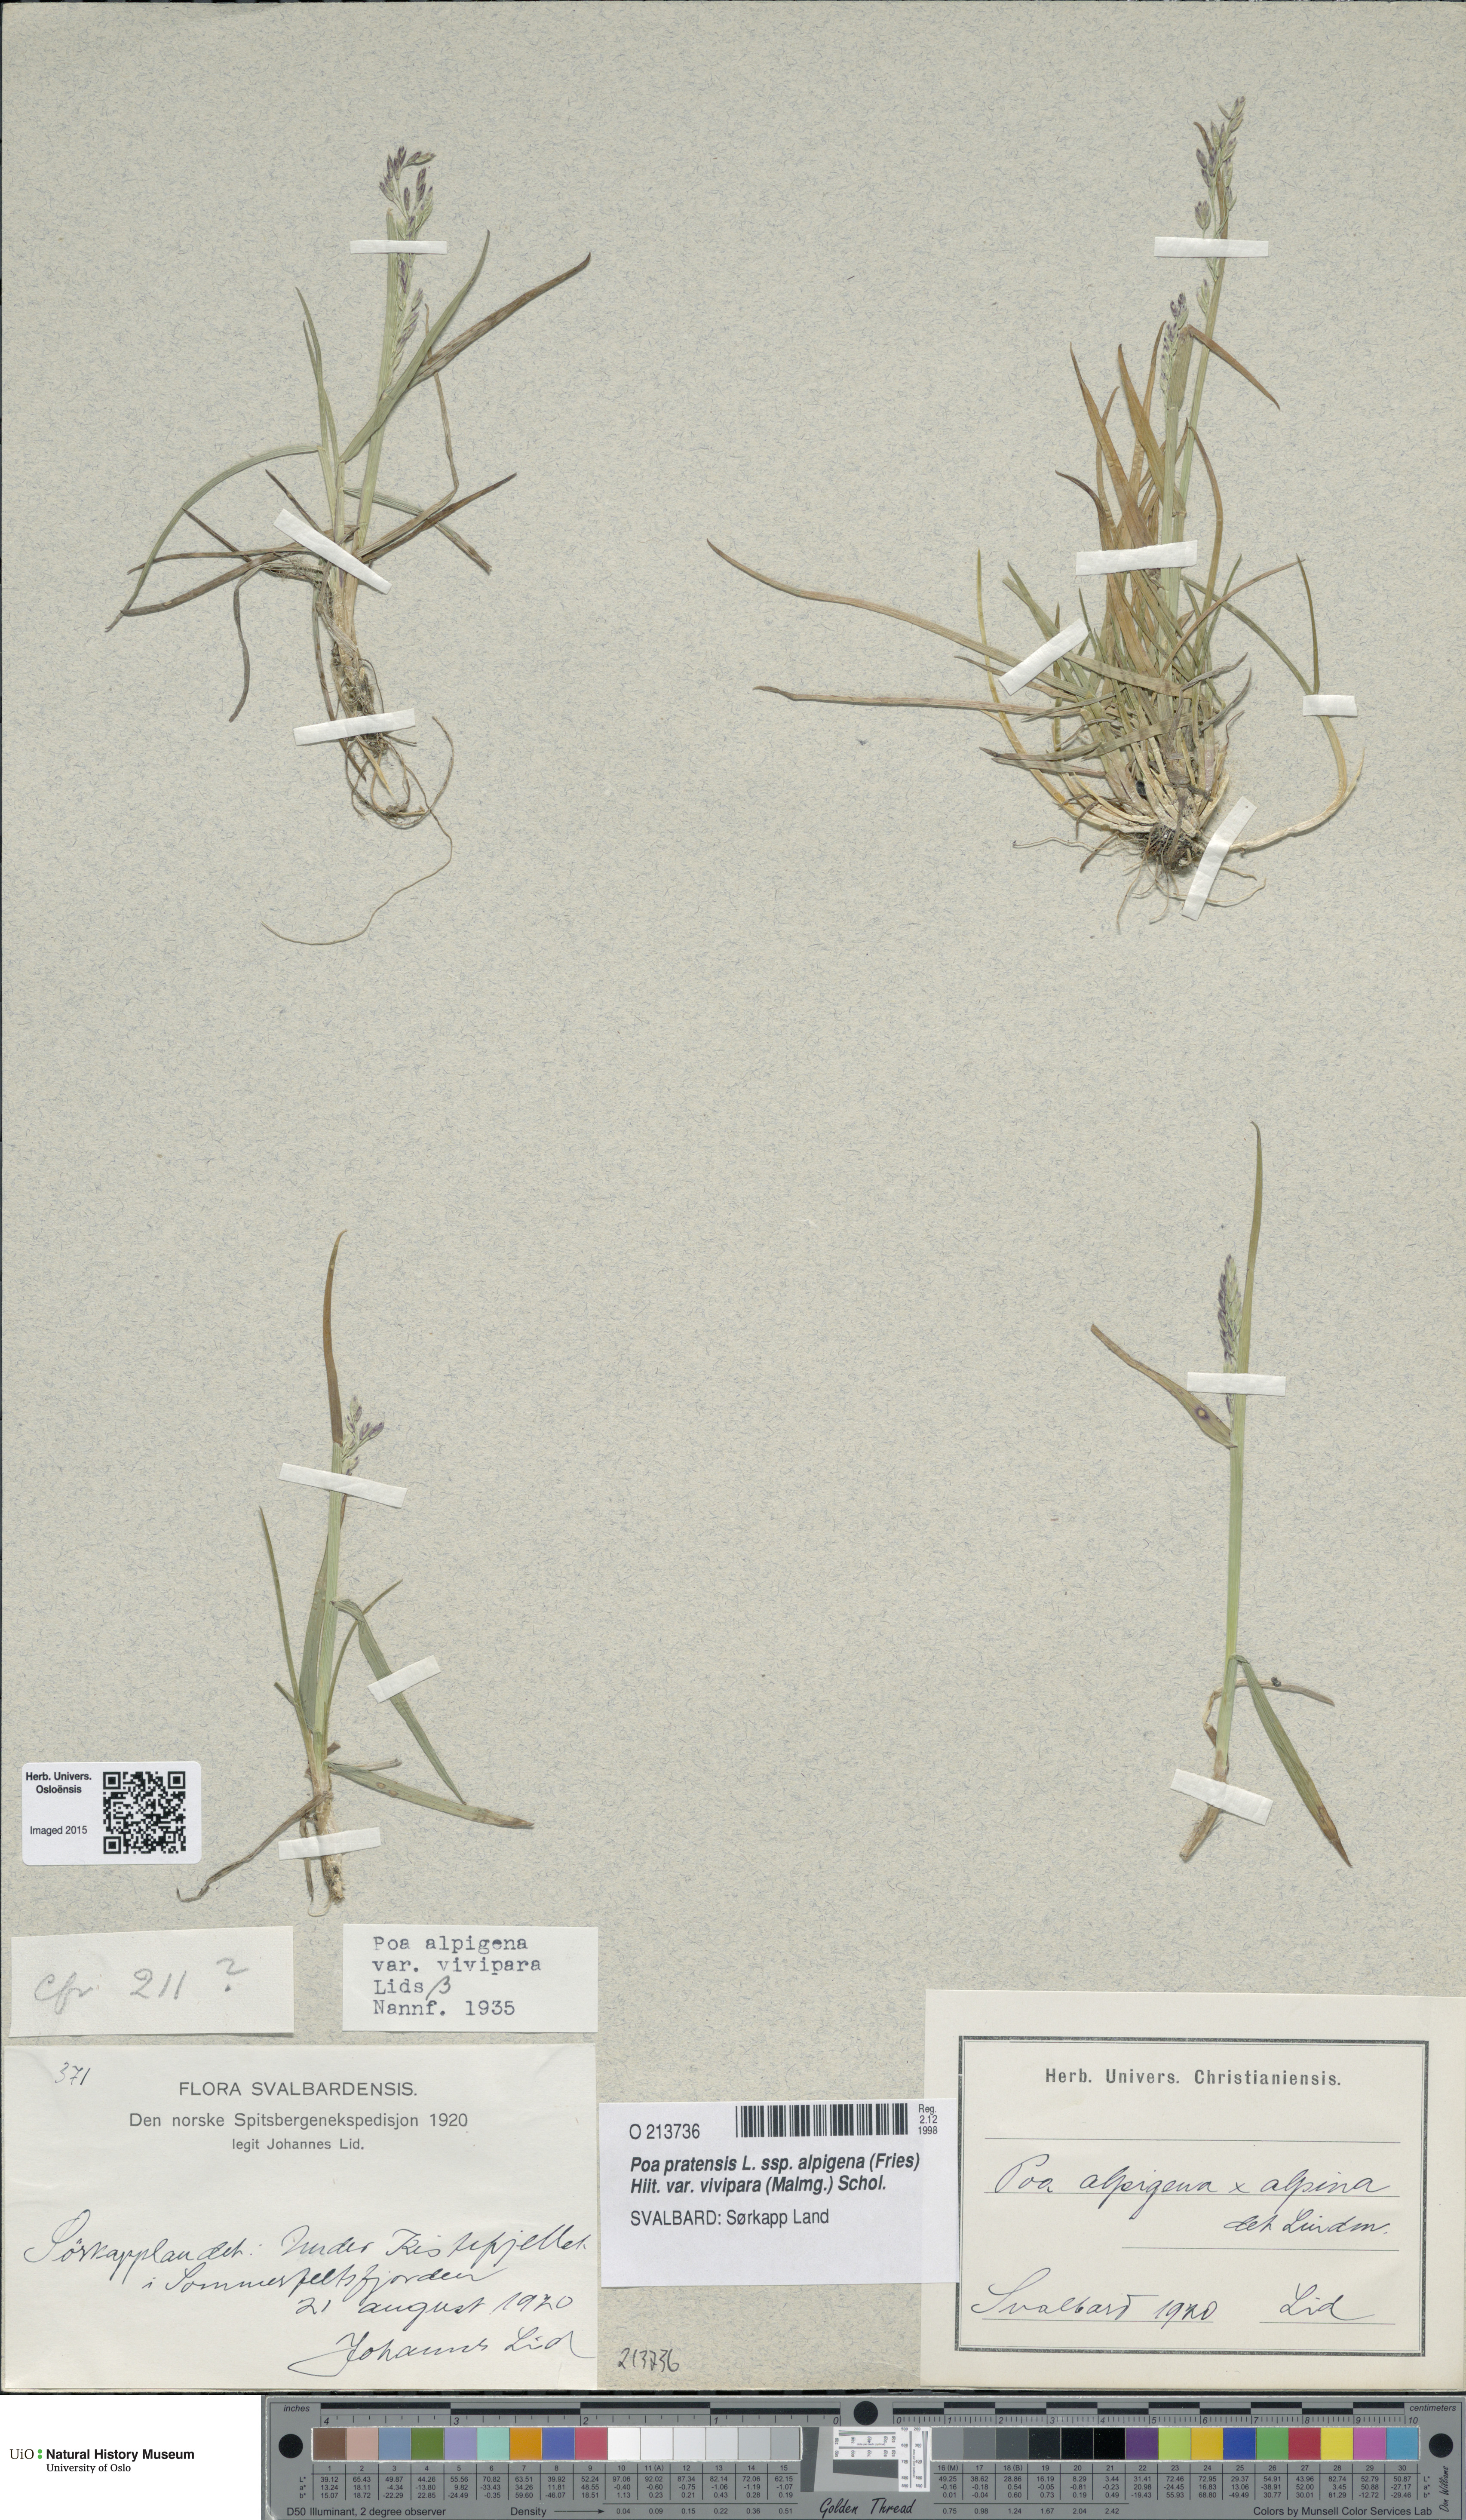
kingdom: Plantae
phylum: Tracheophyta
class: Liliopsida
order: Poales
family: Poaceae
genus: Poa
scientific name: Poa arctica
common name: Arctic bluegrass
